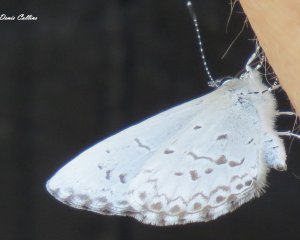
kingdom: Animalia
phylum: Arthropoda
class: Insecta
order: Lepidoptera
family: Lycaenidae
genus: Celastrina
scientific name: Celastrina lucia
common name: Northern Spring Azure
